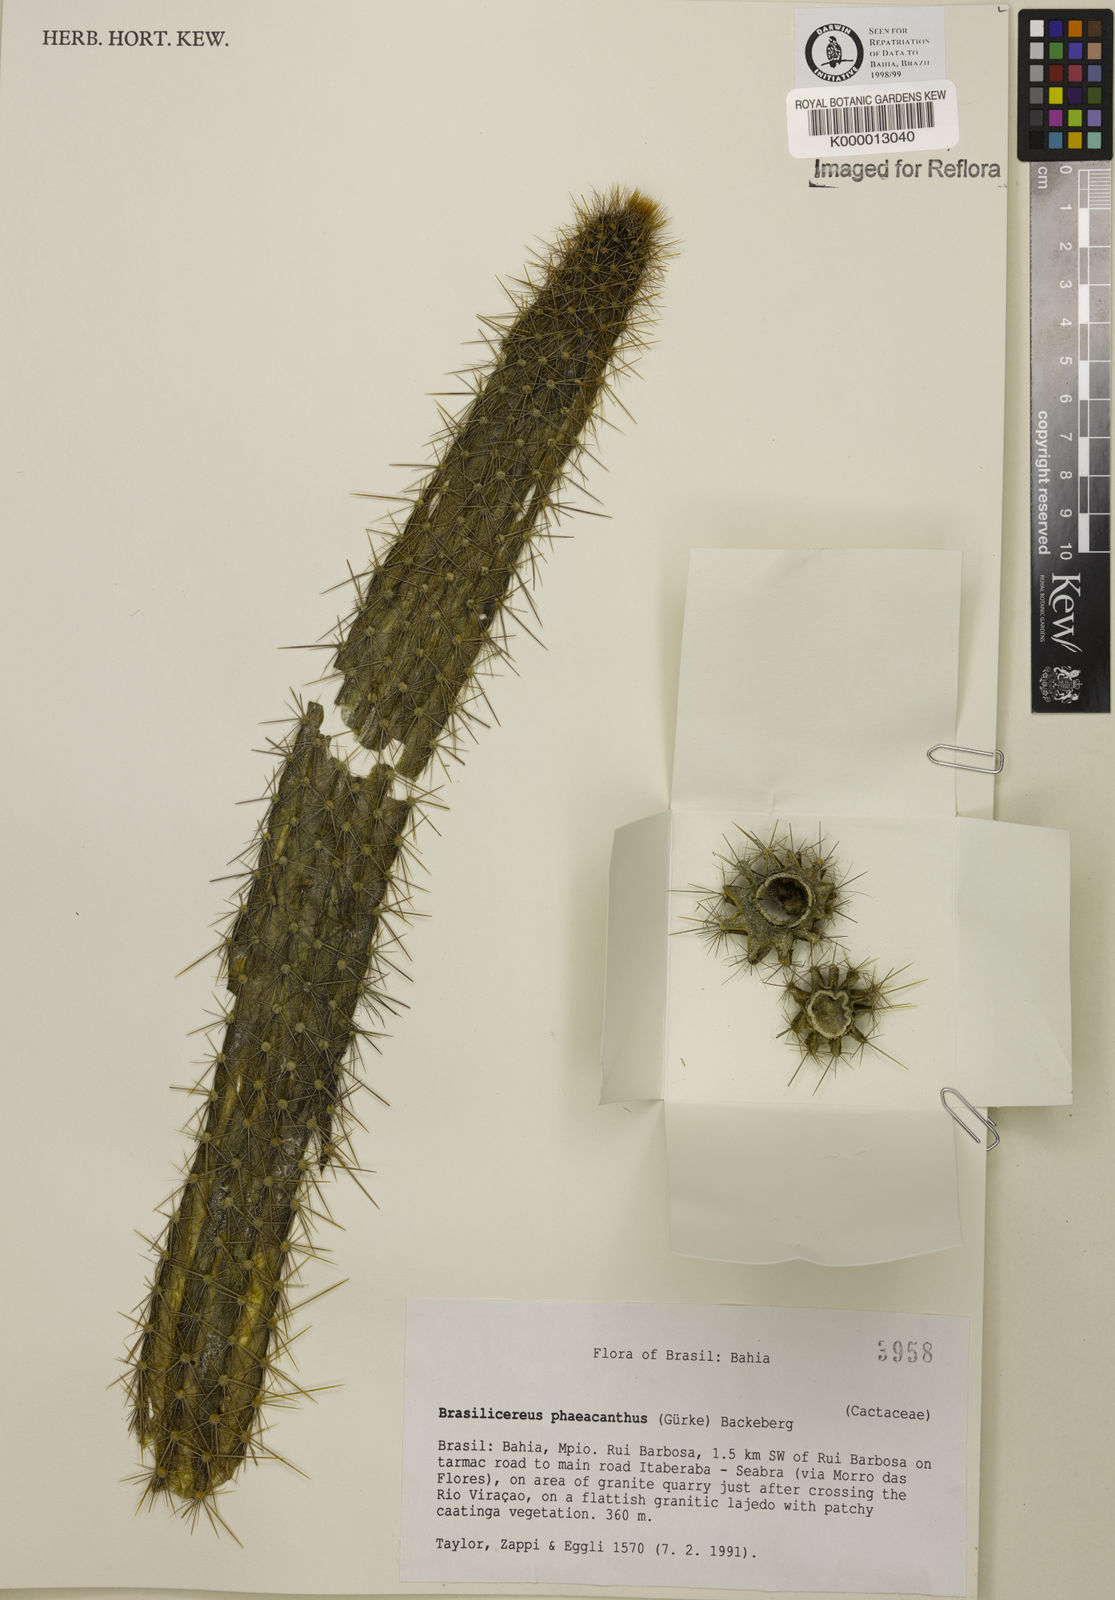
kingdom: Plantae
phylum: Tracheophyta
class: Magnoliopsida
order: Caryophyllales
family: Cactaceae
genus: Brasilicereus
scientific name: Brasilicereus phaeacanthus
